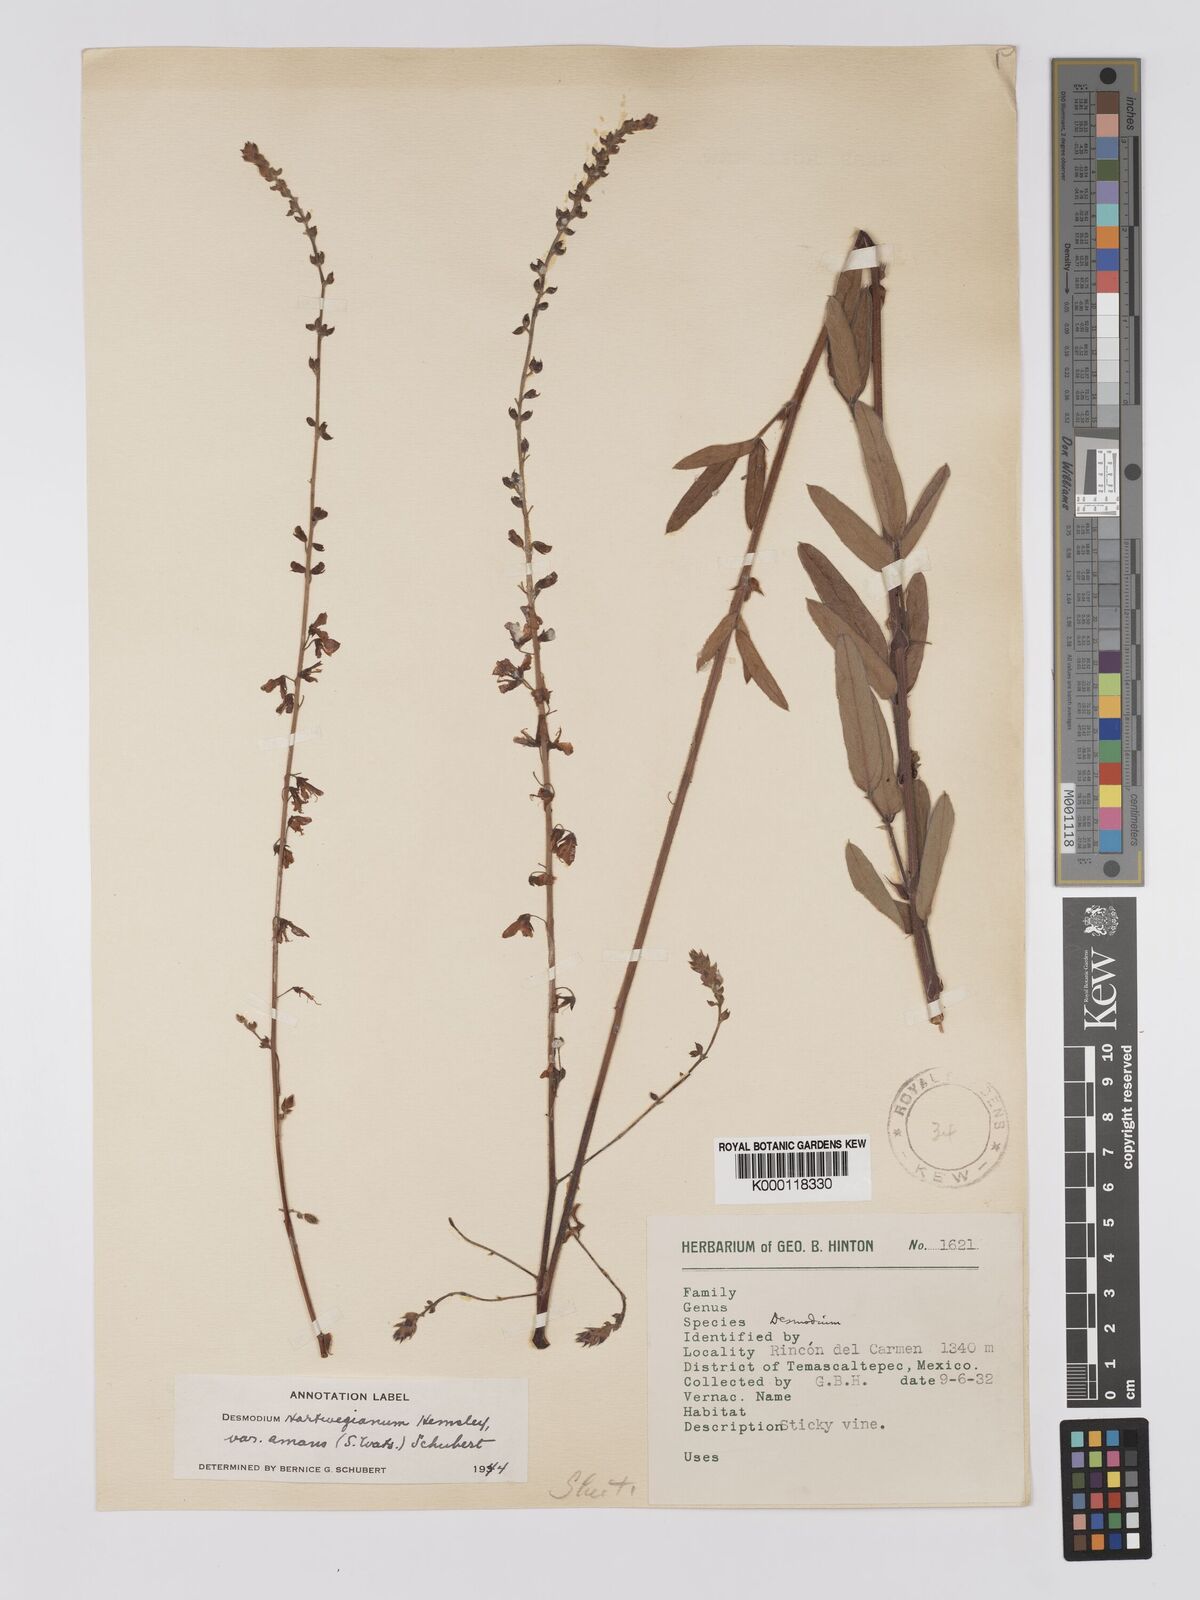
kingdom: Plantae
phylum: Tracheophyta
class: Magnoliopsida
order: Fabales
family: Fabaceae
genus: Desmodium
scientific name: Desmodium hartwegianum
